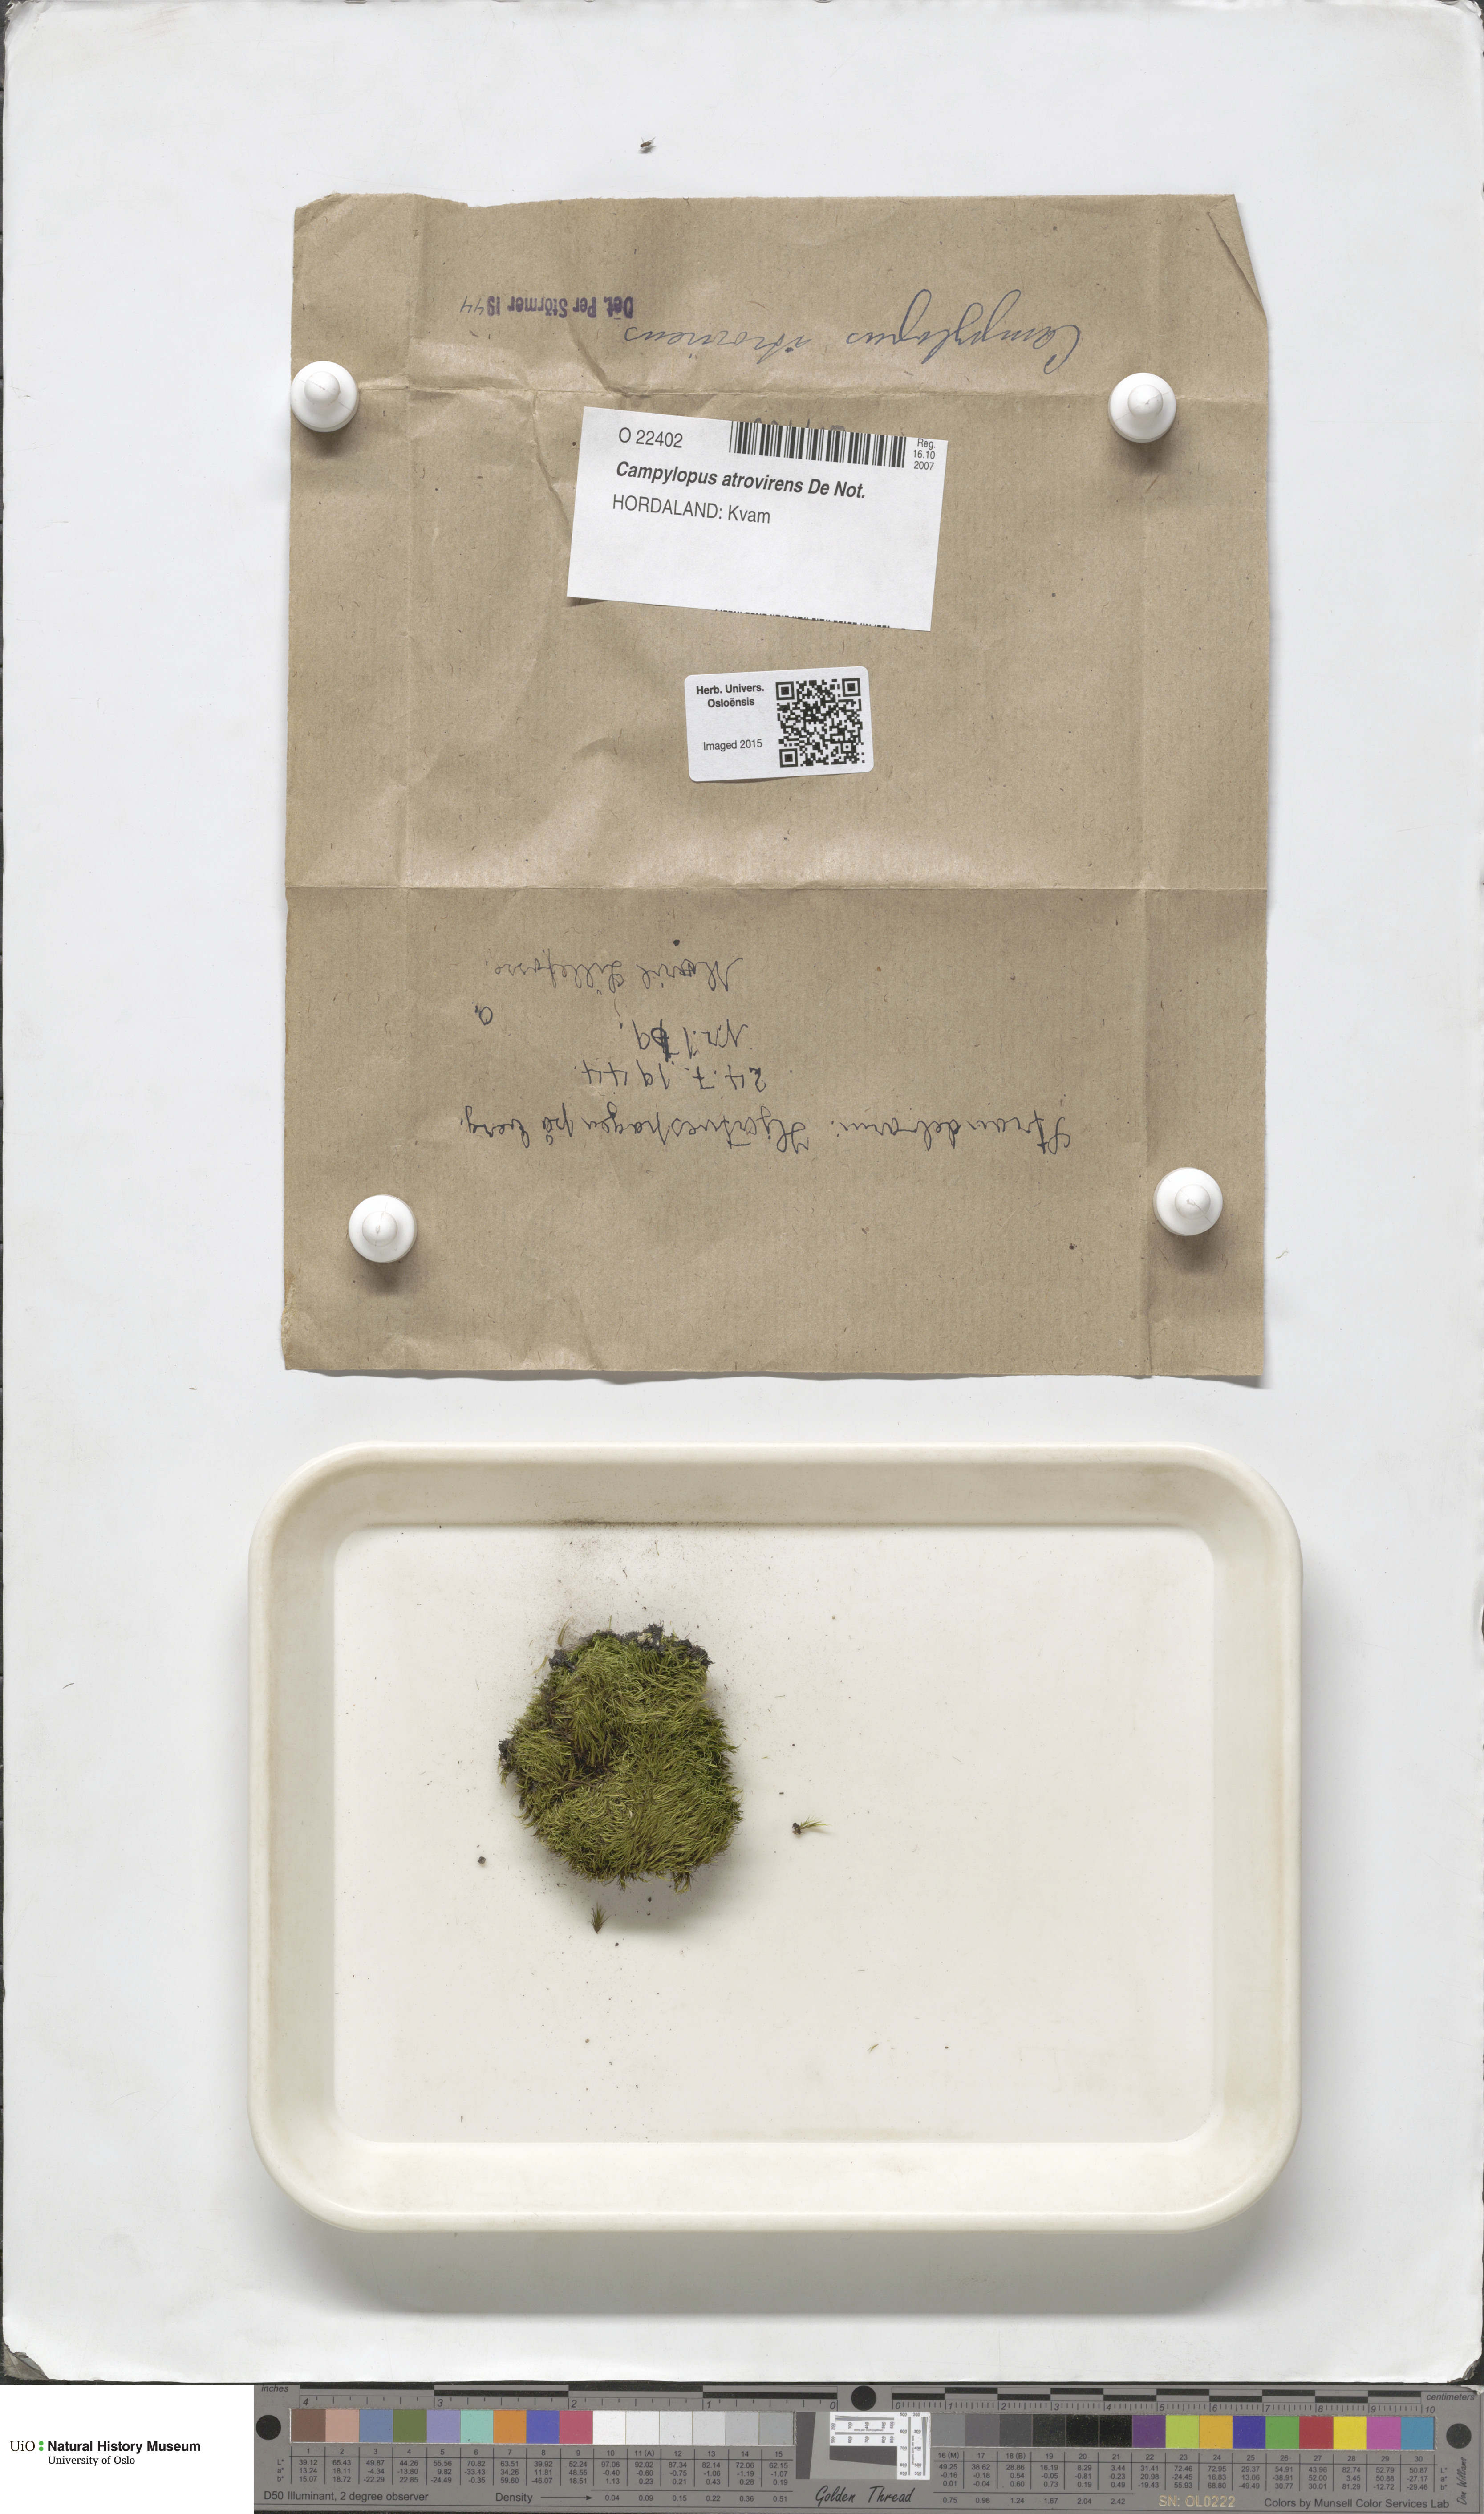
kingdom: Plantae
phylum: Bryophyta
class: Bryopsida
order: Dicranales
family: Leucobryaceae
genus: Campylopus
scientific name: Campylopus atrovirens
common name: Bristly swan-neck moss
